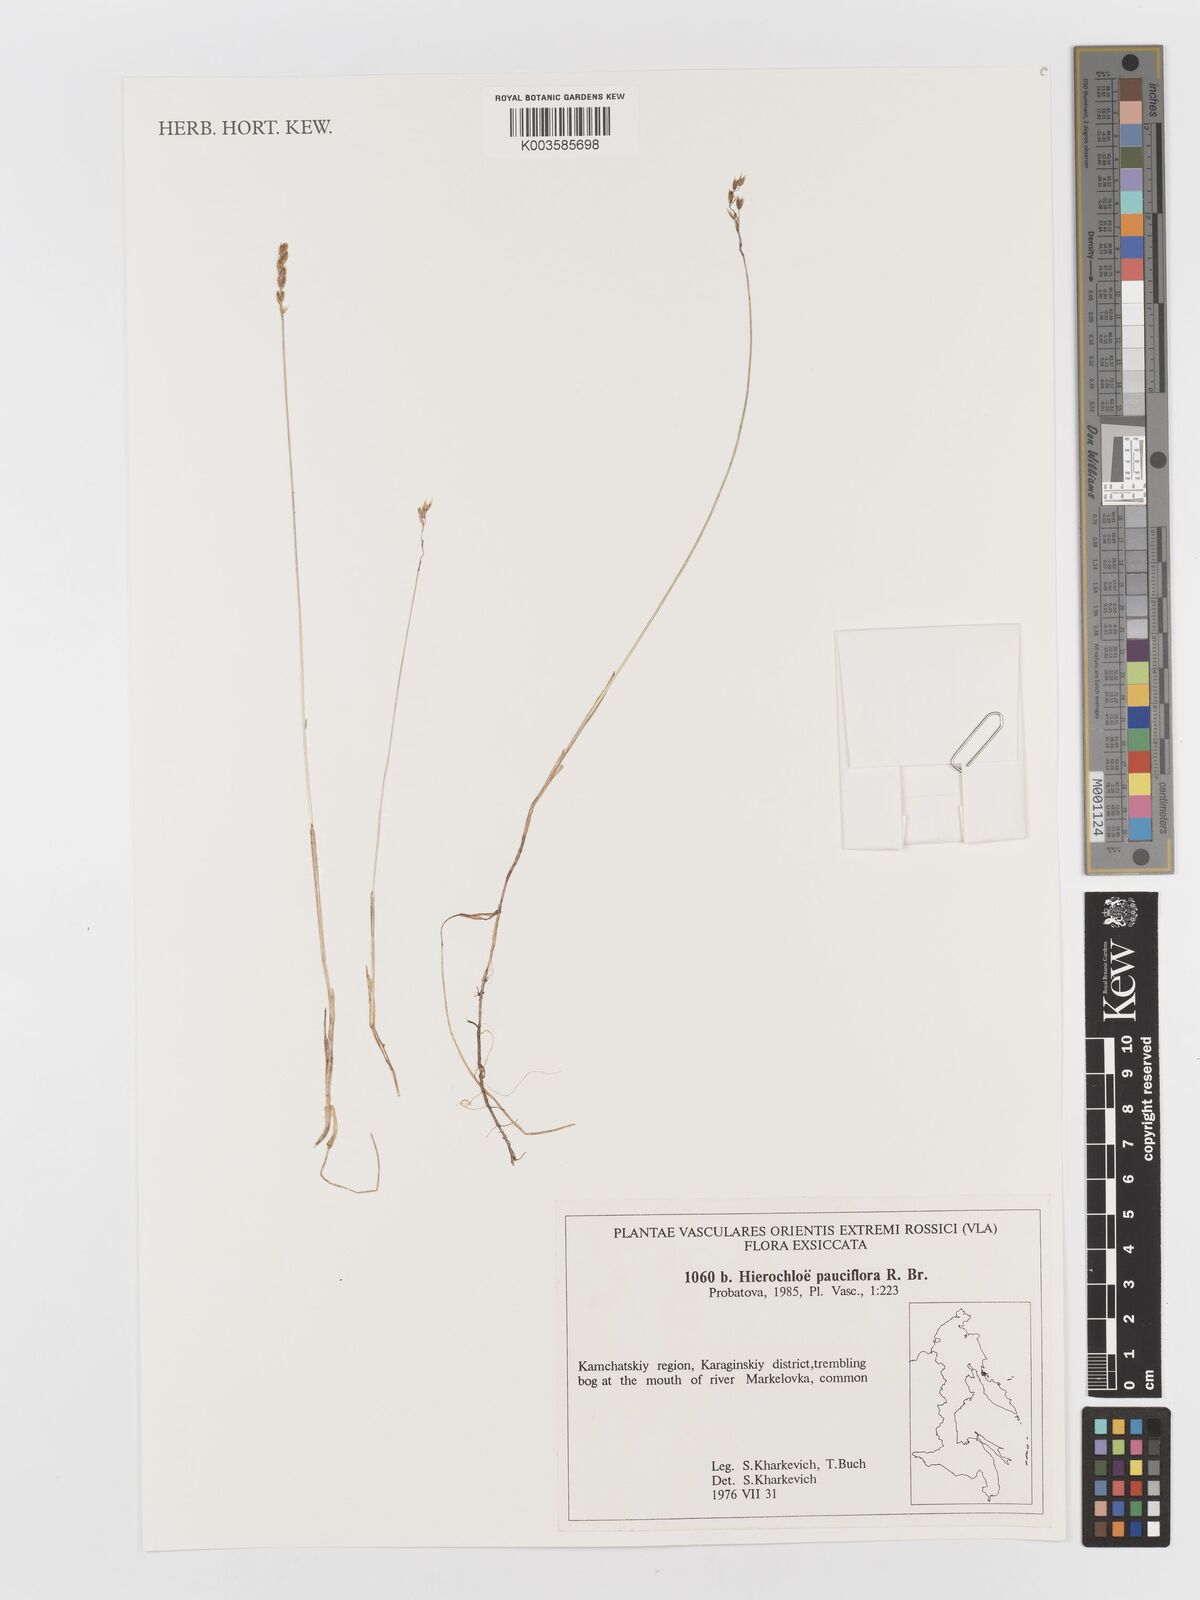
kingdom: Plantae
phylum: Tracheophyta
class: Liliopsida
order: Poales
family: Poaceae
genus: Anthoxanthum
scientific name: Anthoxanthum arcticum
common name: Arctic sweetgrass
